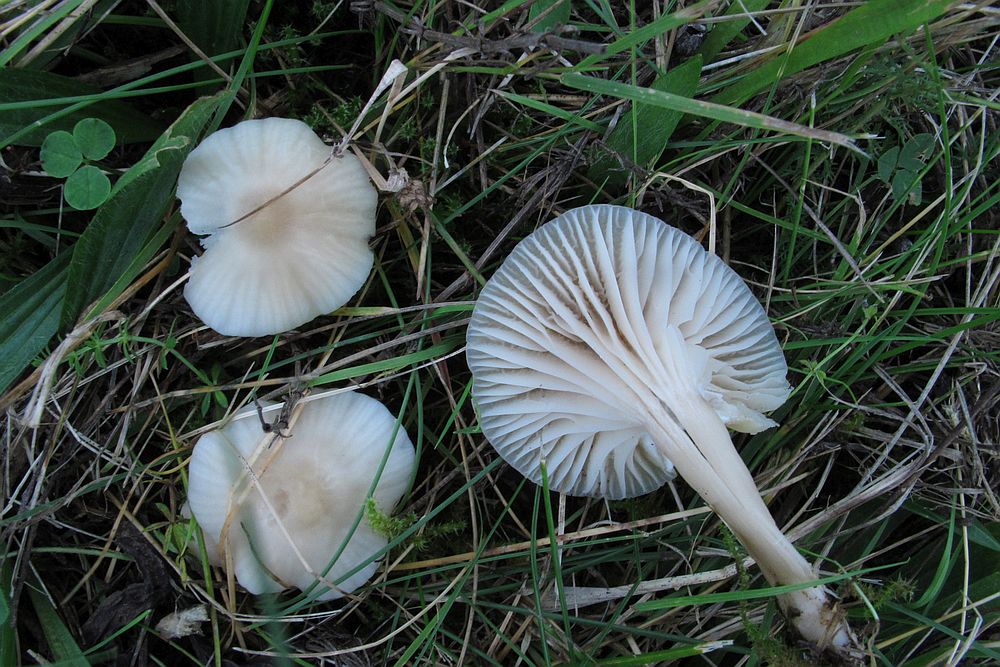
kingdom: Fungi
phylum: Basidiomycota
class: Agaricomycetes
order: Agaricales
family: Hygrophoraceae
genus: Cuphophyllus
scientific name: Cuphophyllus virgineus
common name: snehvid vokshat
